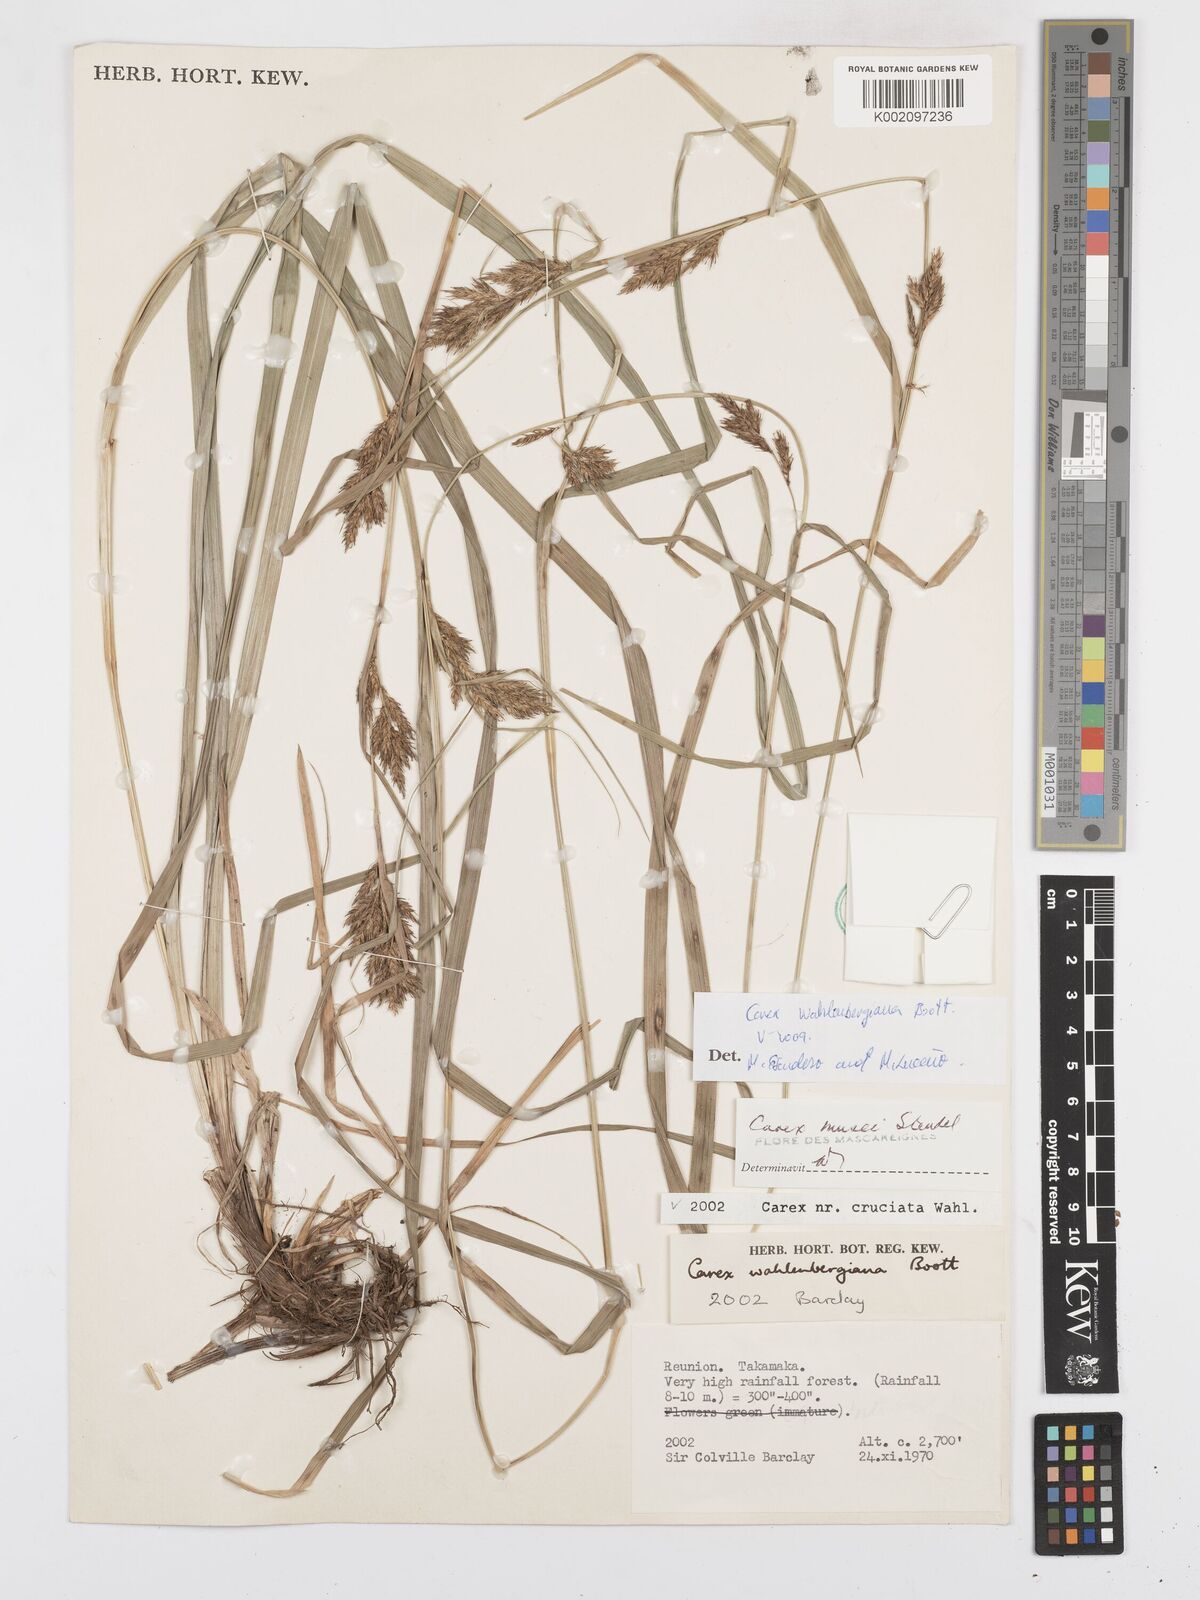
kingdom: Plantae
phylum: Tracheophyta
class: Liliopsida
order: Poales
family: Cyperaceae
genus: Carex
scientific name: Carex wahlenbergiana
